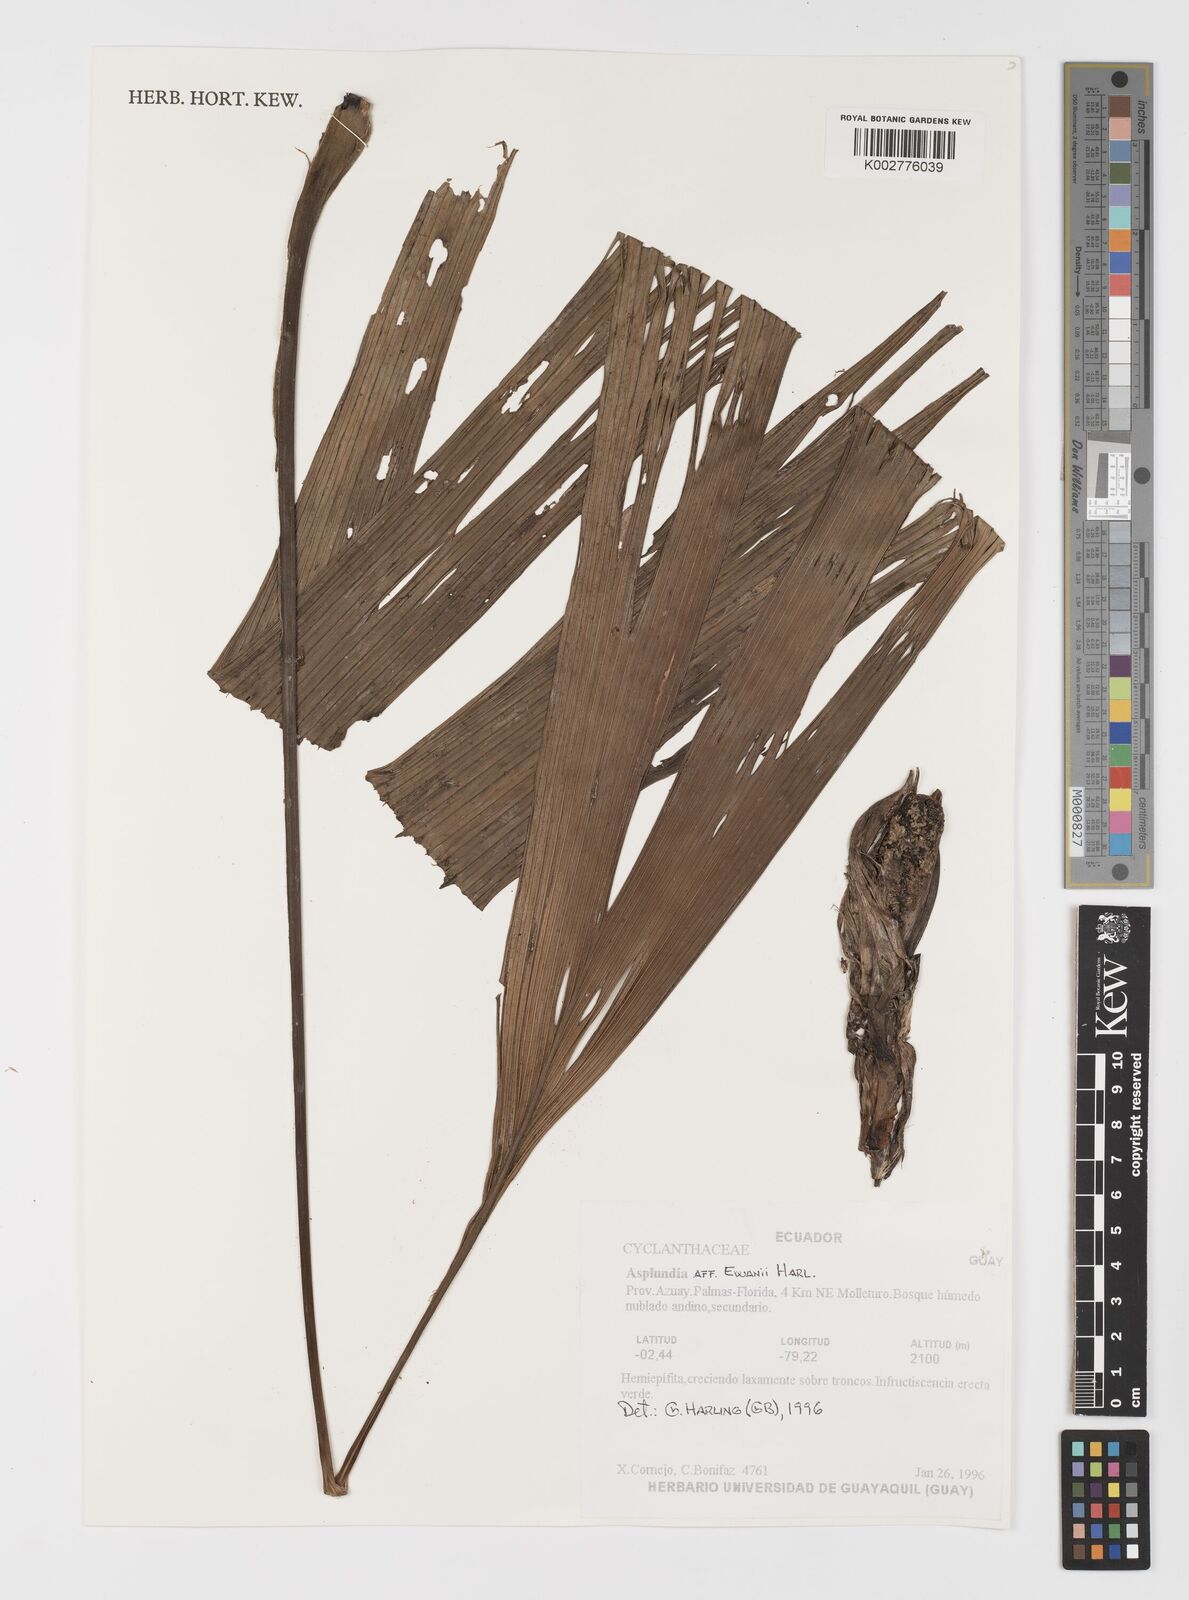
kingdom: Plantae
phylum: Tracheophyta
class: Liliopsida
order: Pandanales
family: Cyclanthaceae
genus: Asplundia
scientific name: Asplundia ewanii
